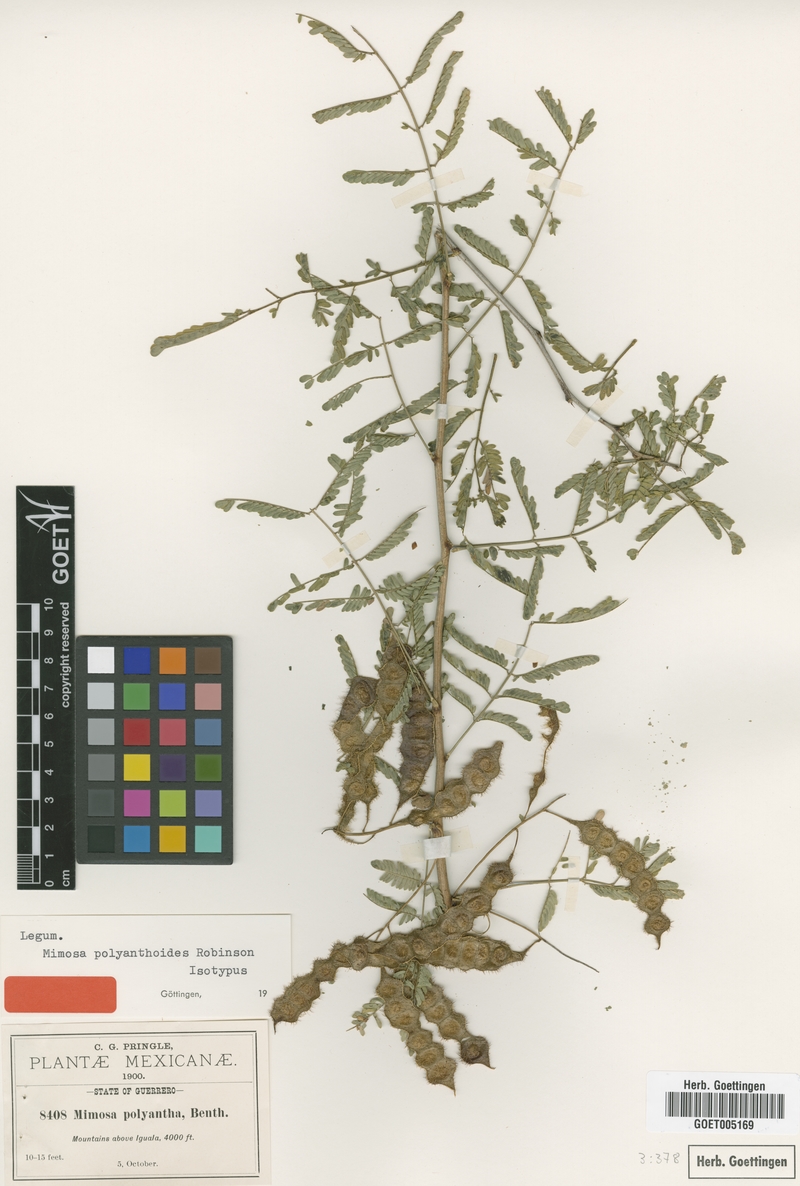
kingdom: Plantae
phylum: Tracheophyta
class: Magnoliopsida
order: Fabales
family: Fabaceae
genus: Mimosa
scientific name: Mimosa polyantha
